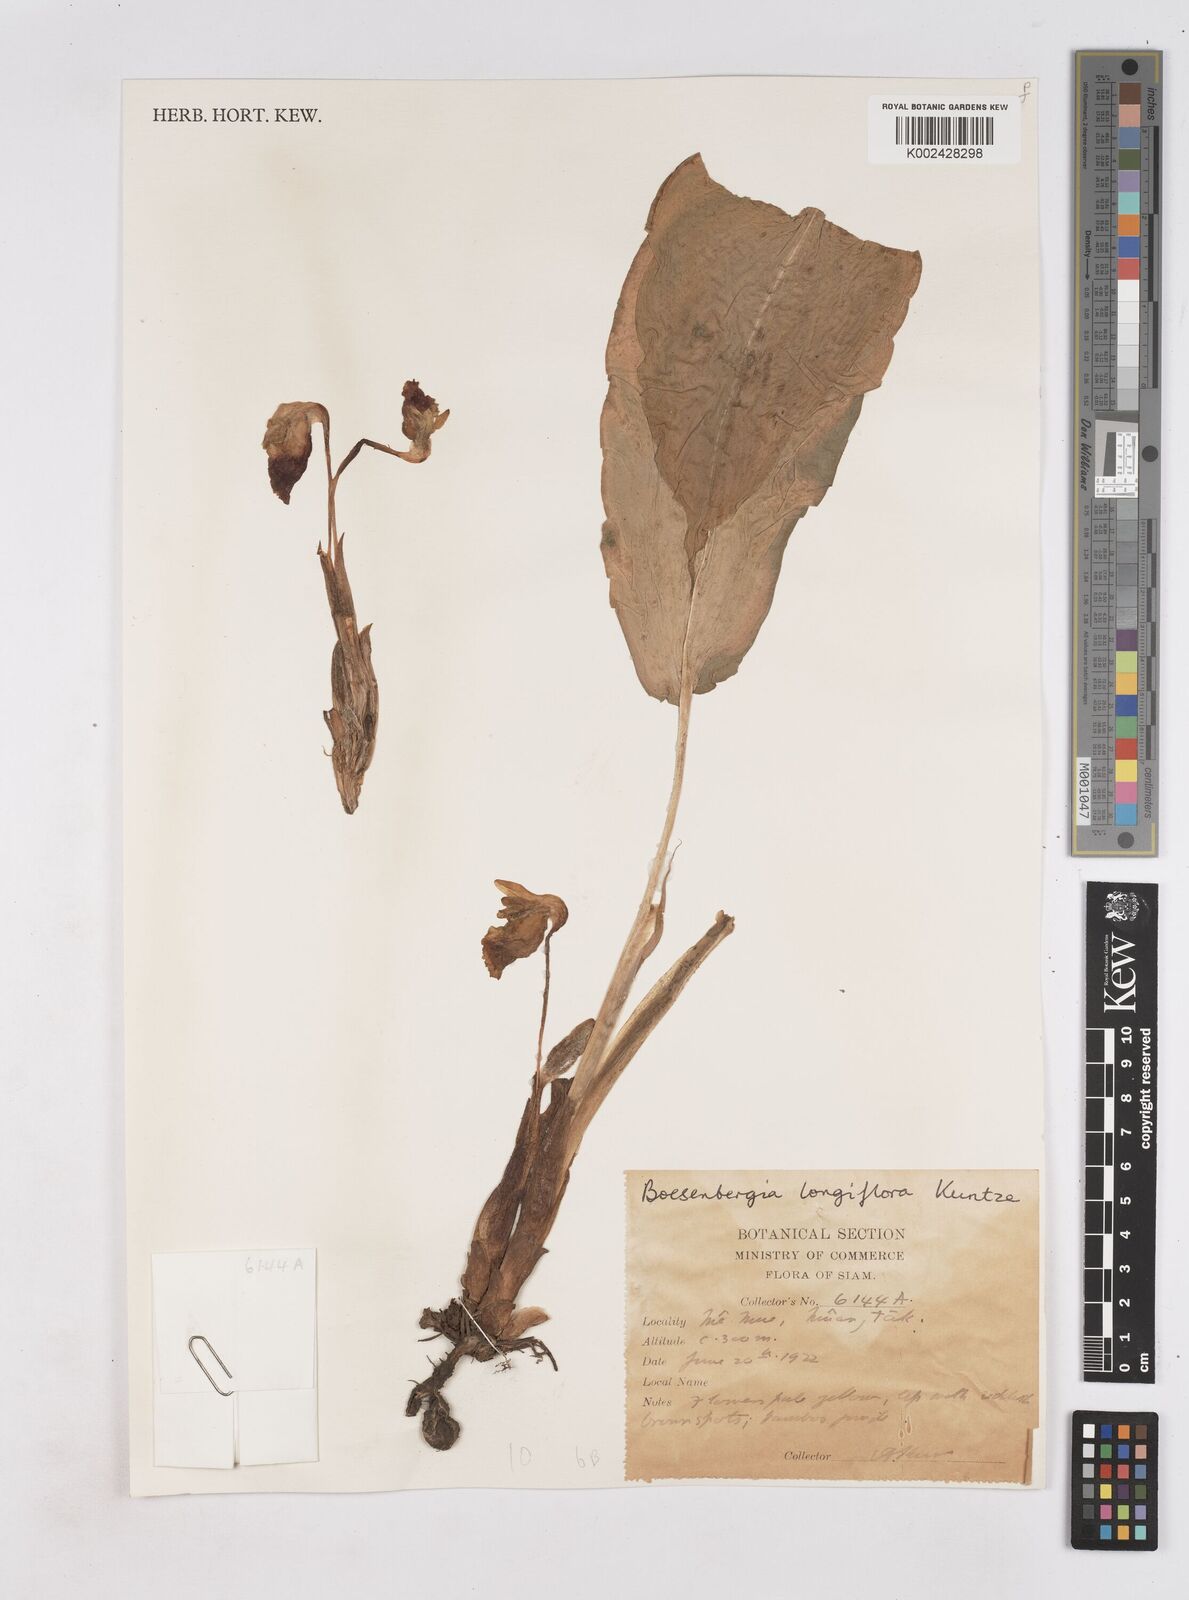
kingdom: Plantae
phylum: Tracheophyta
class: Liliopsida
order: Zingiberales
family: Zingiberaceae
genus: Boesenbergia
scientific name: Boesenbergia longiflora
